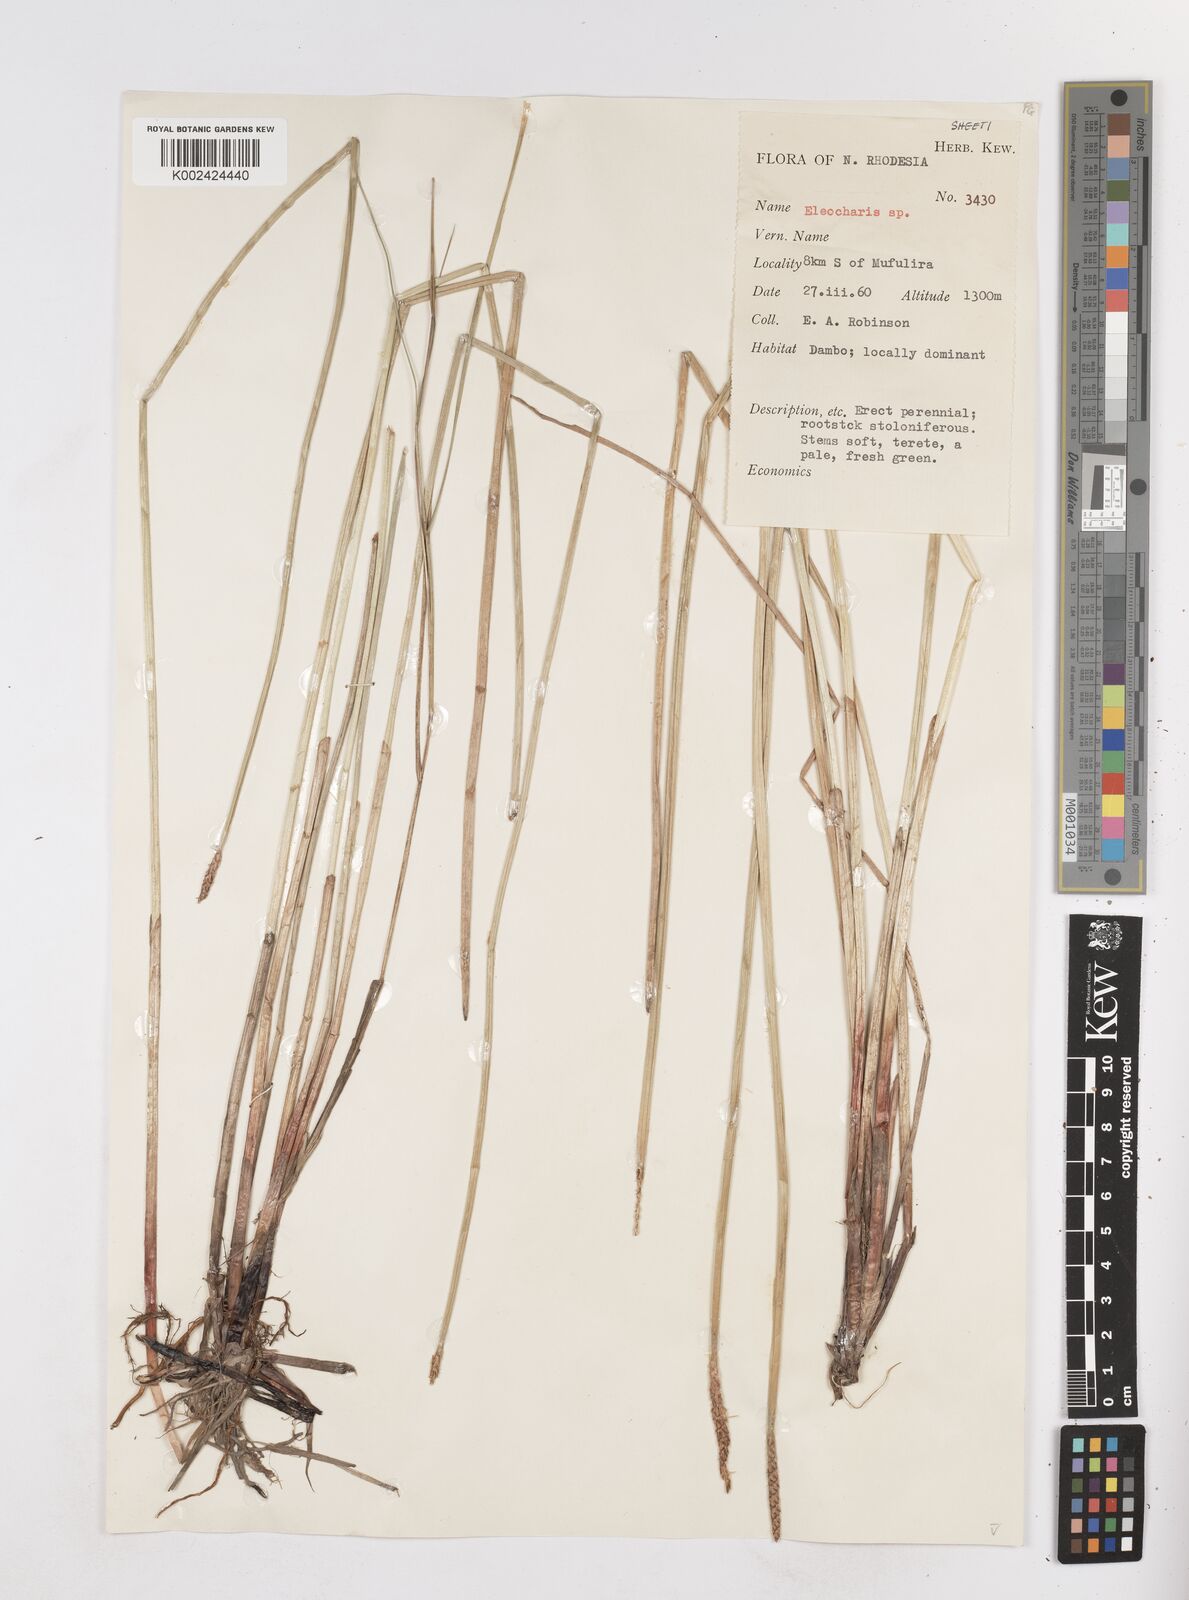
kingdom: Plantae
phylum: Tracheophyta
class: Liliopsida
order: Poales
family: Cyperaceae
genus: Eleocharis
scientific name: Eleocharis
